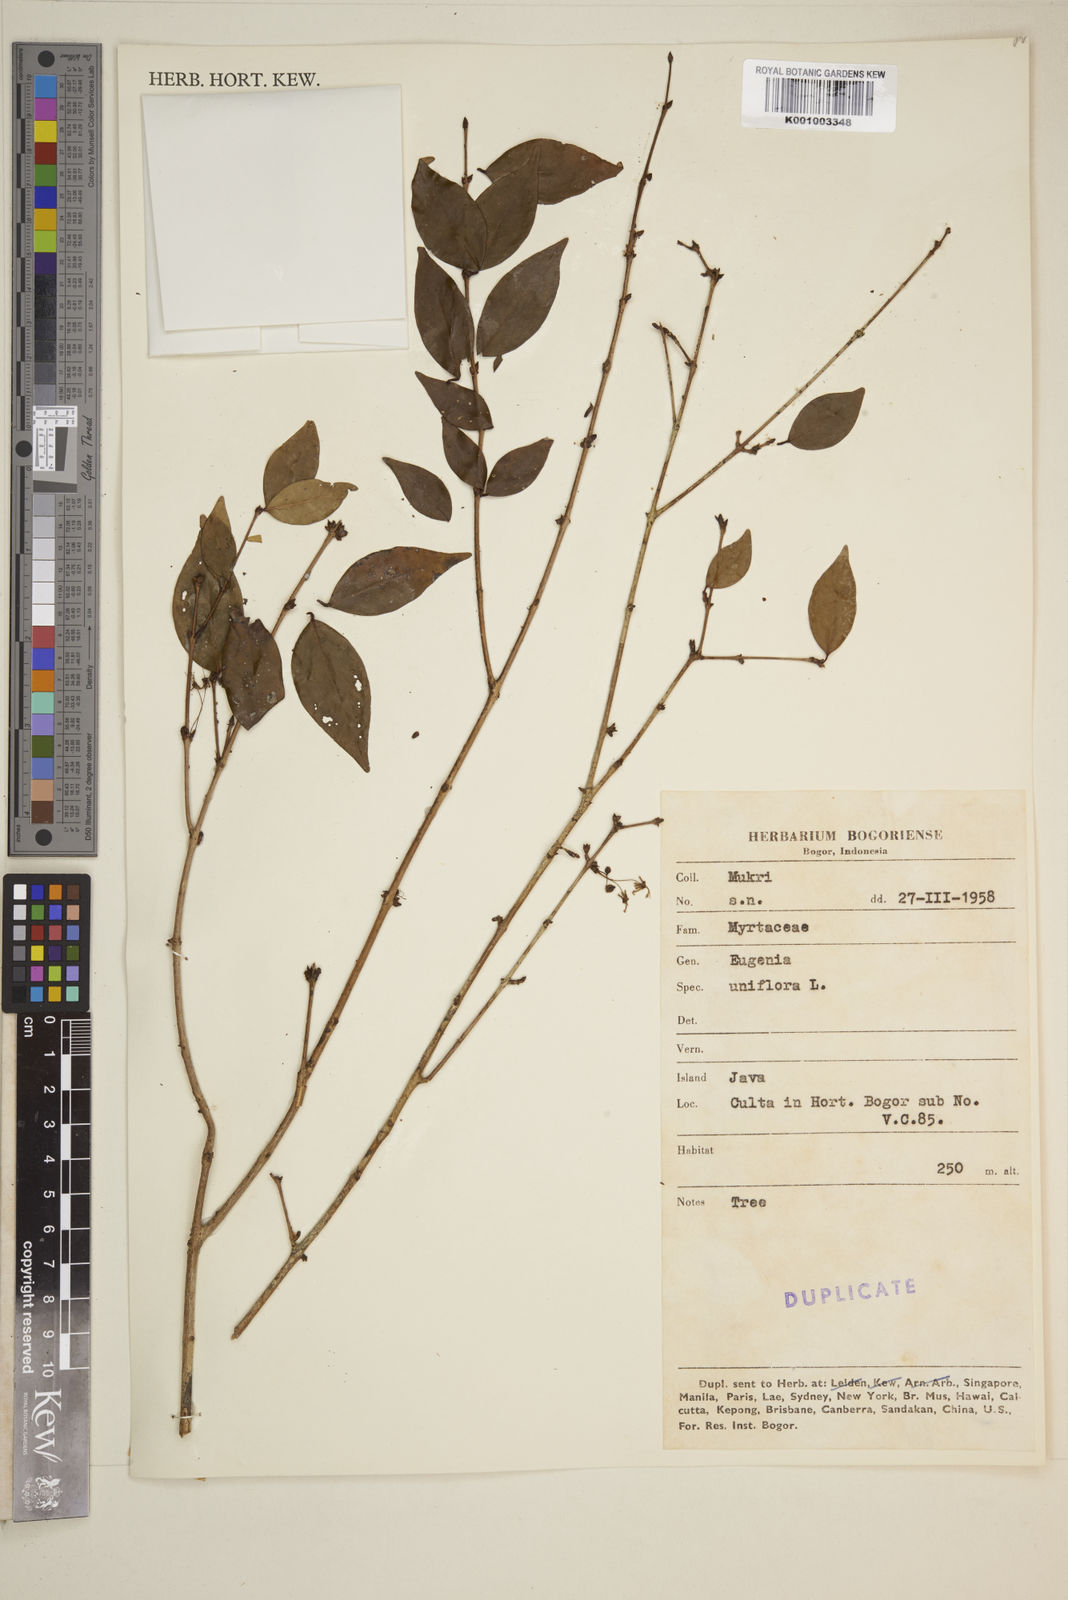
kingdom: Plantae
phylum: Tracheophyta
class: Magnoliopsida
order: Myrtales
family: Myrtaceae
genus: Eugenia
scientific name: Eugenia uniflora
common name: Surinam cherry
